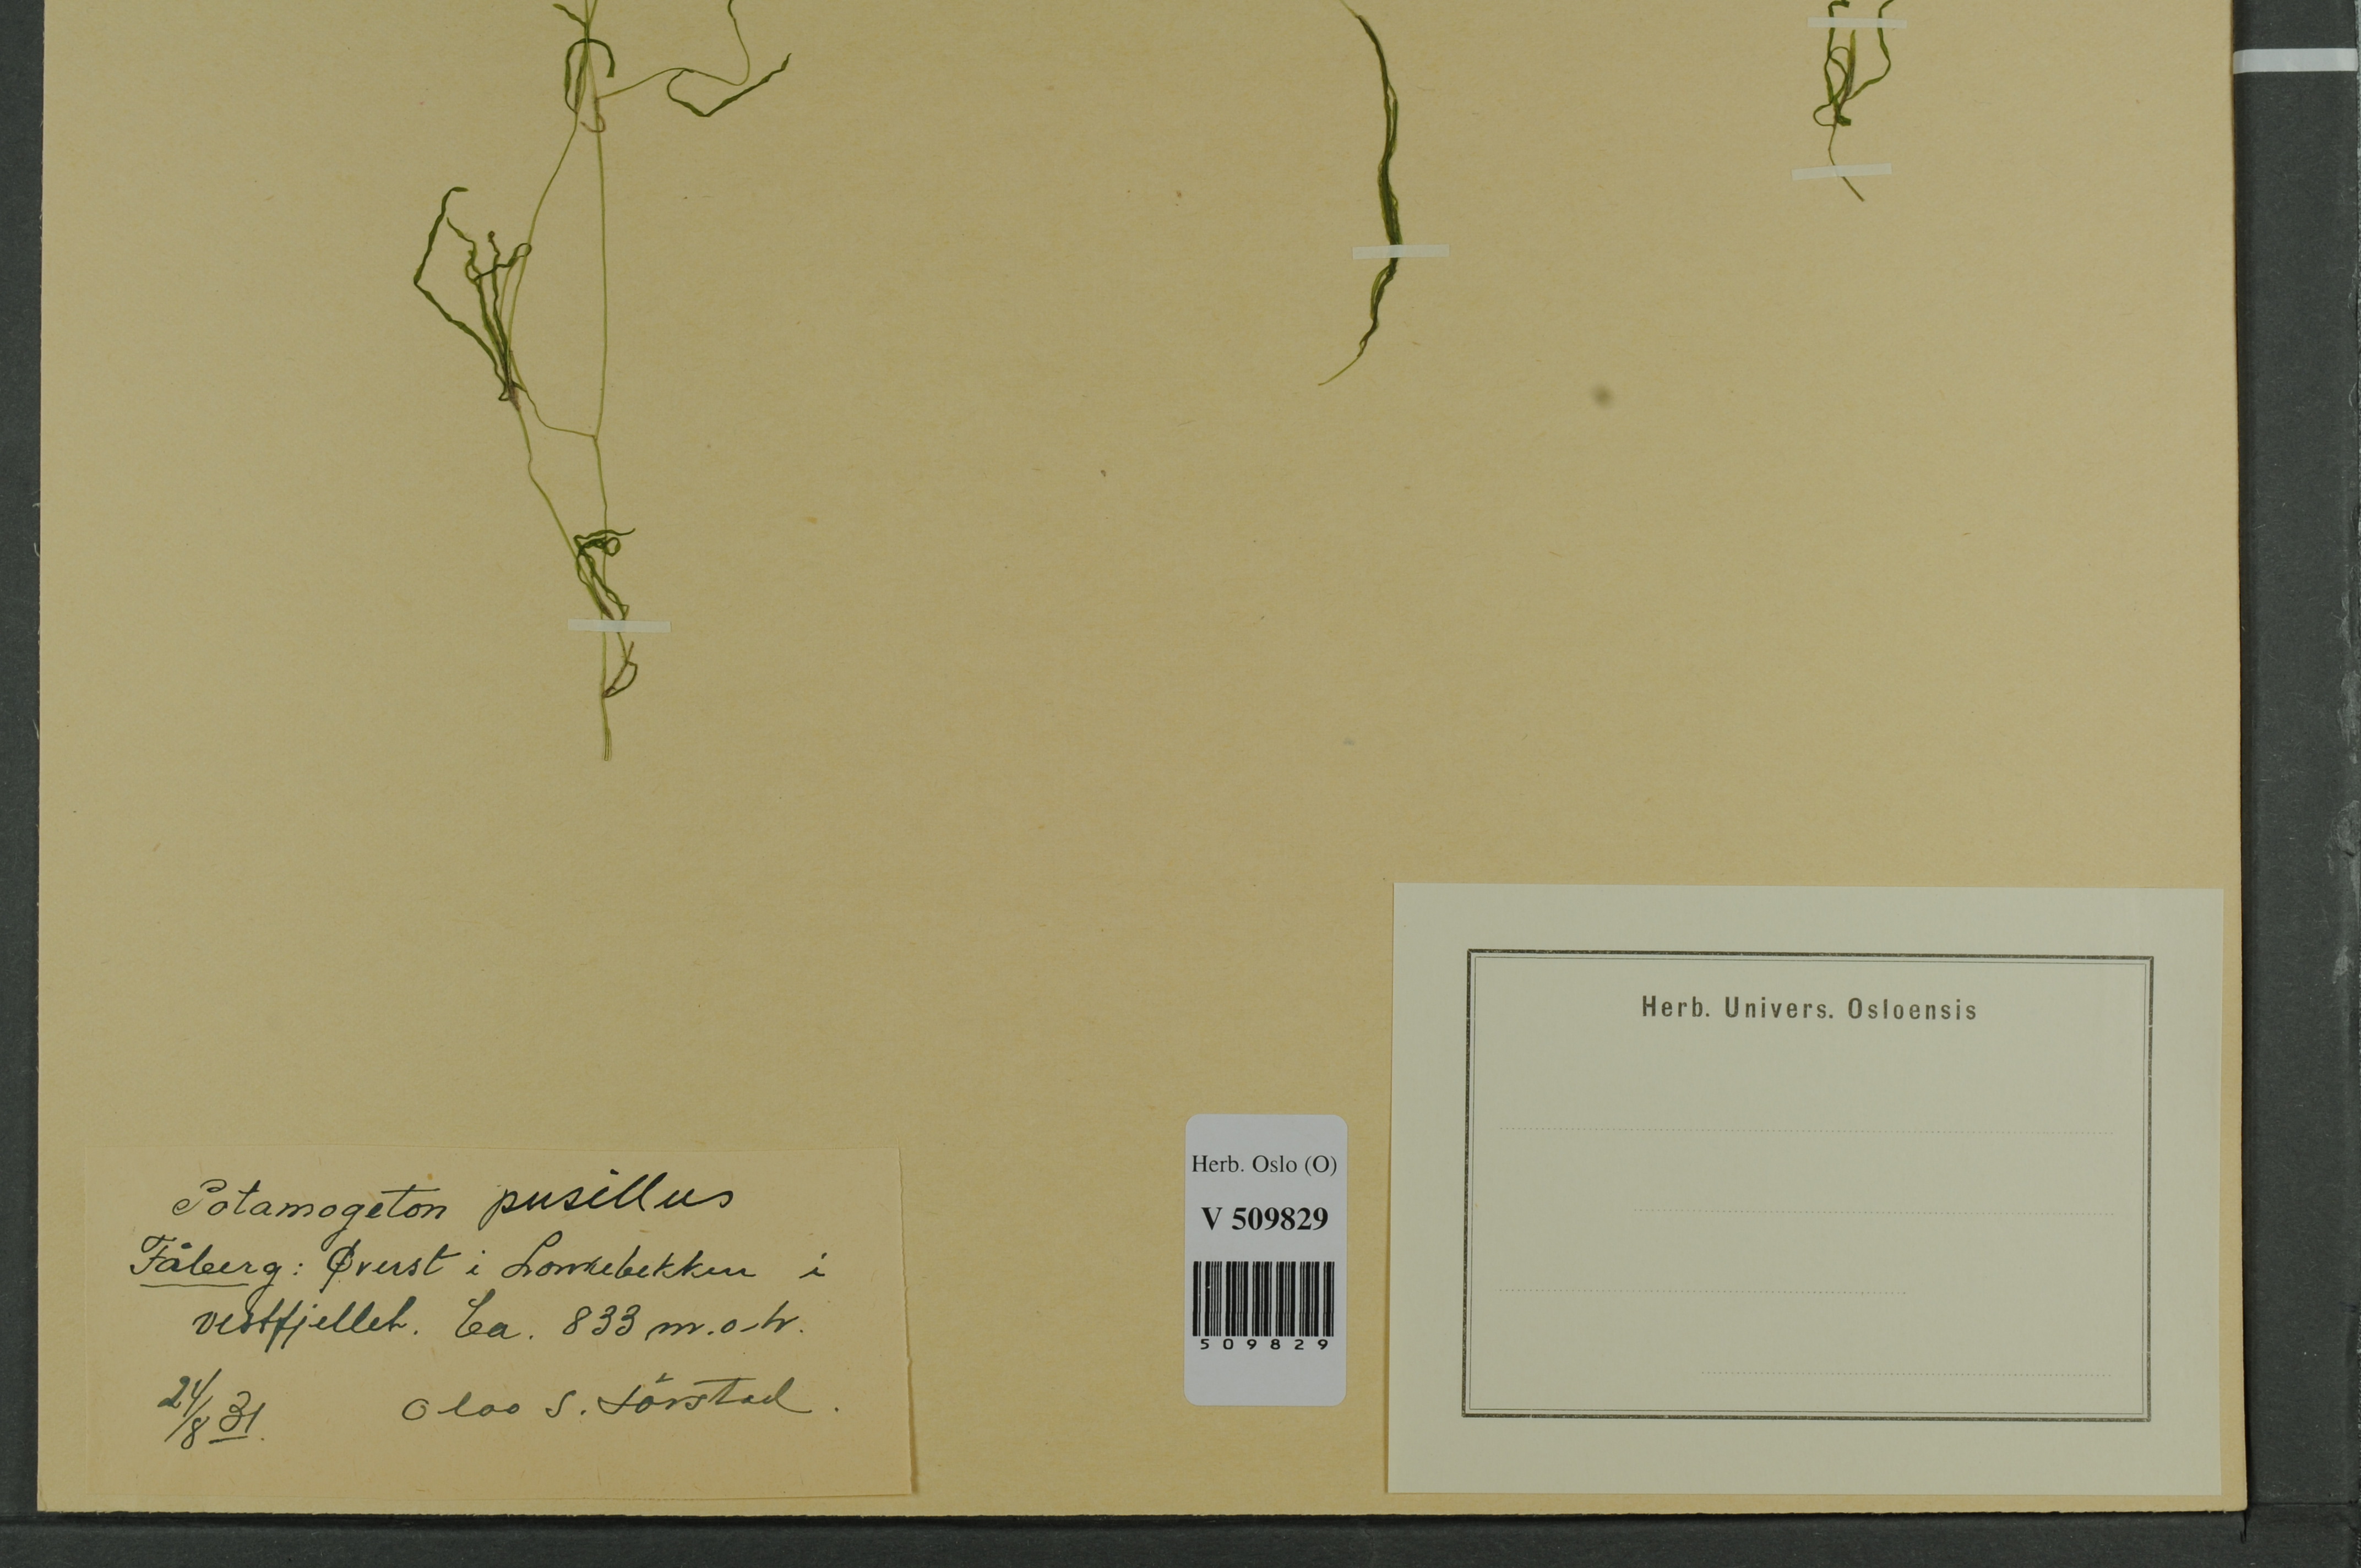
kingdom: Plantae
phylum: Tracheophyta
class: Liliopsida
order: Alismatales
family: Potamogetonaceae
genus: Potamogeton
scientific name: Potamogeton berchtoldii
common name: Small pondweed
